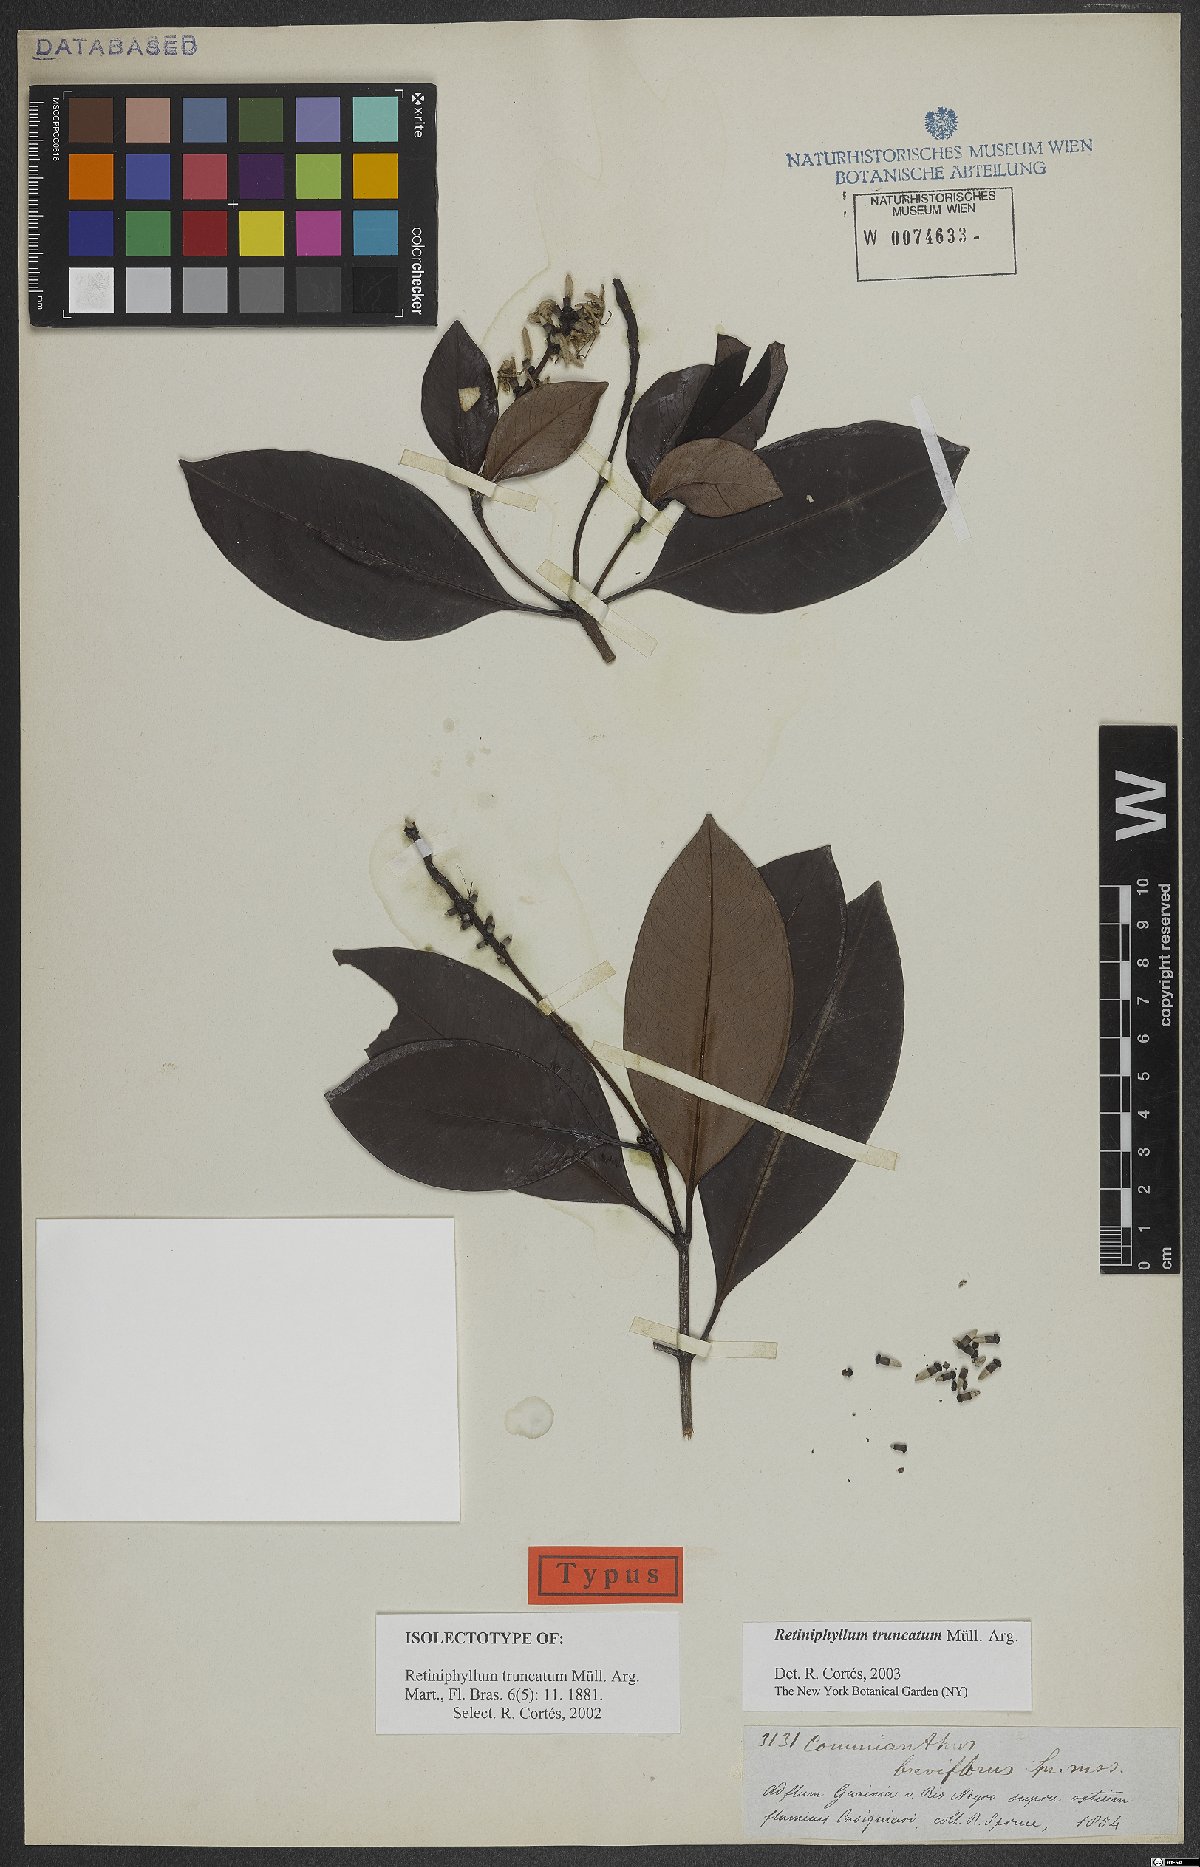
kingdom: Plantae
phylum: Tracheophyta
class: Magnoliopsida
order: Gentianales
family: Rubiaceae
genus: Retiniphyllum
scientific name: Retiniphyllum truncatum
